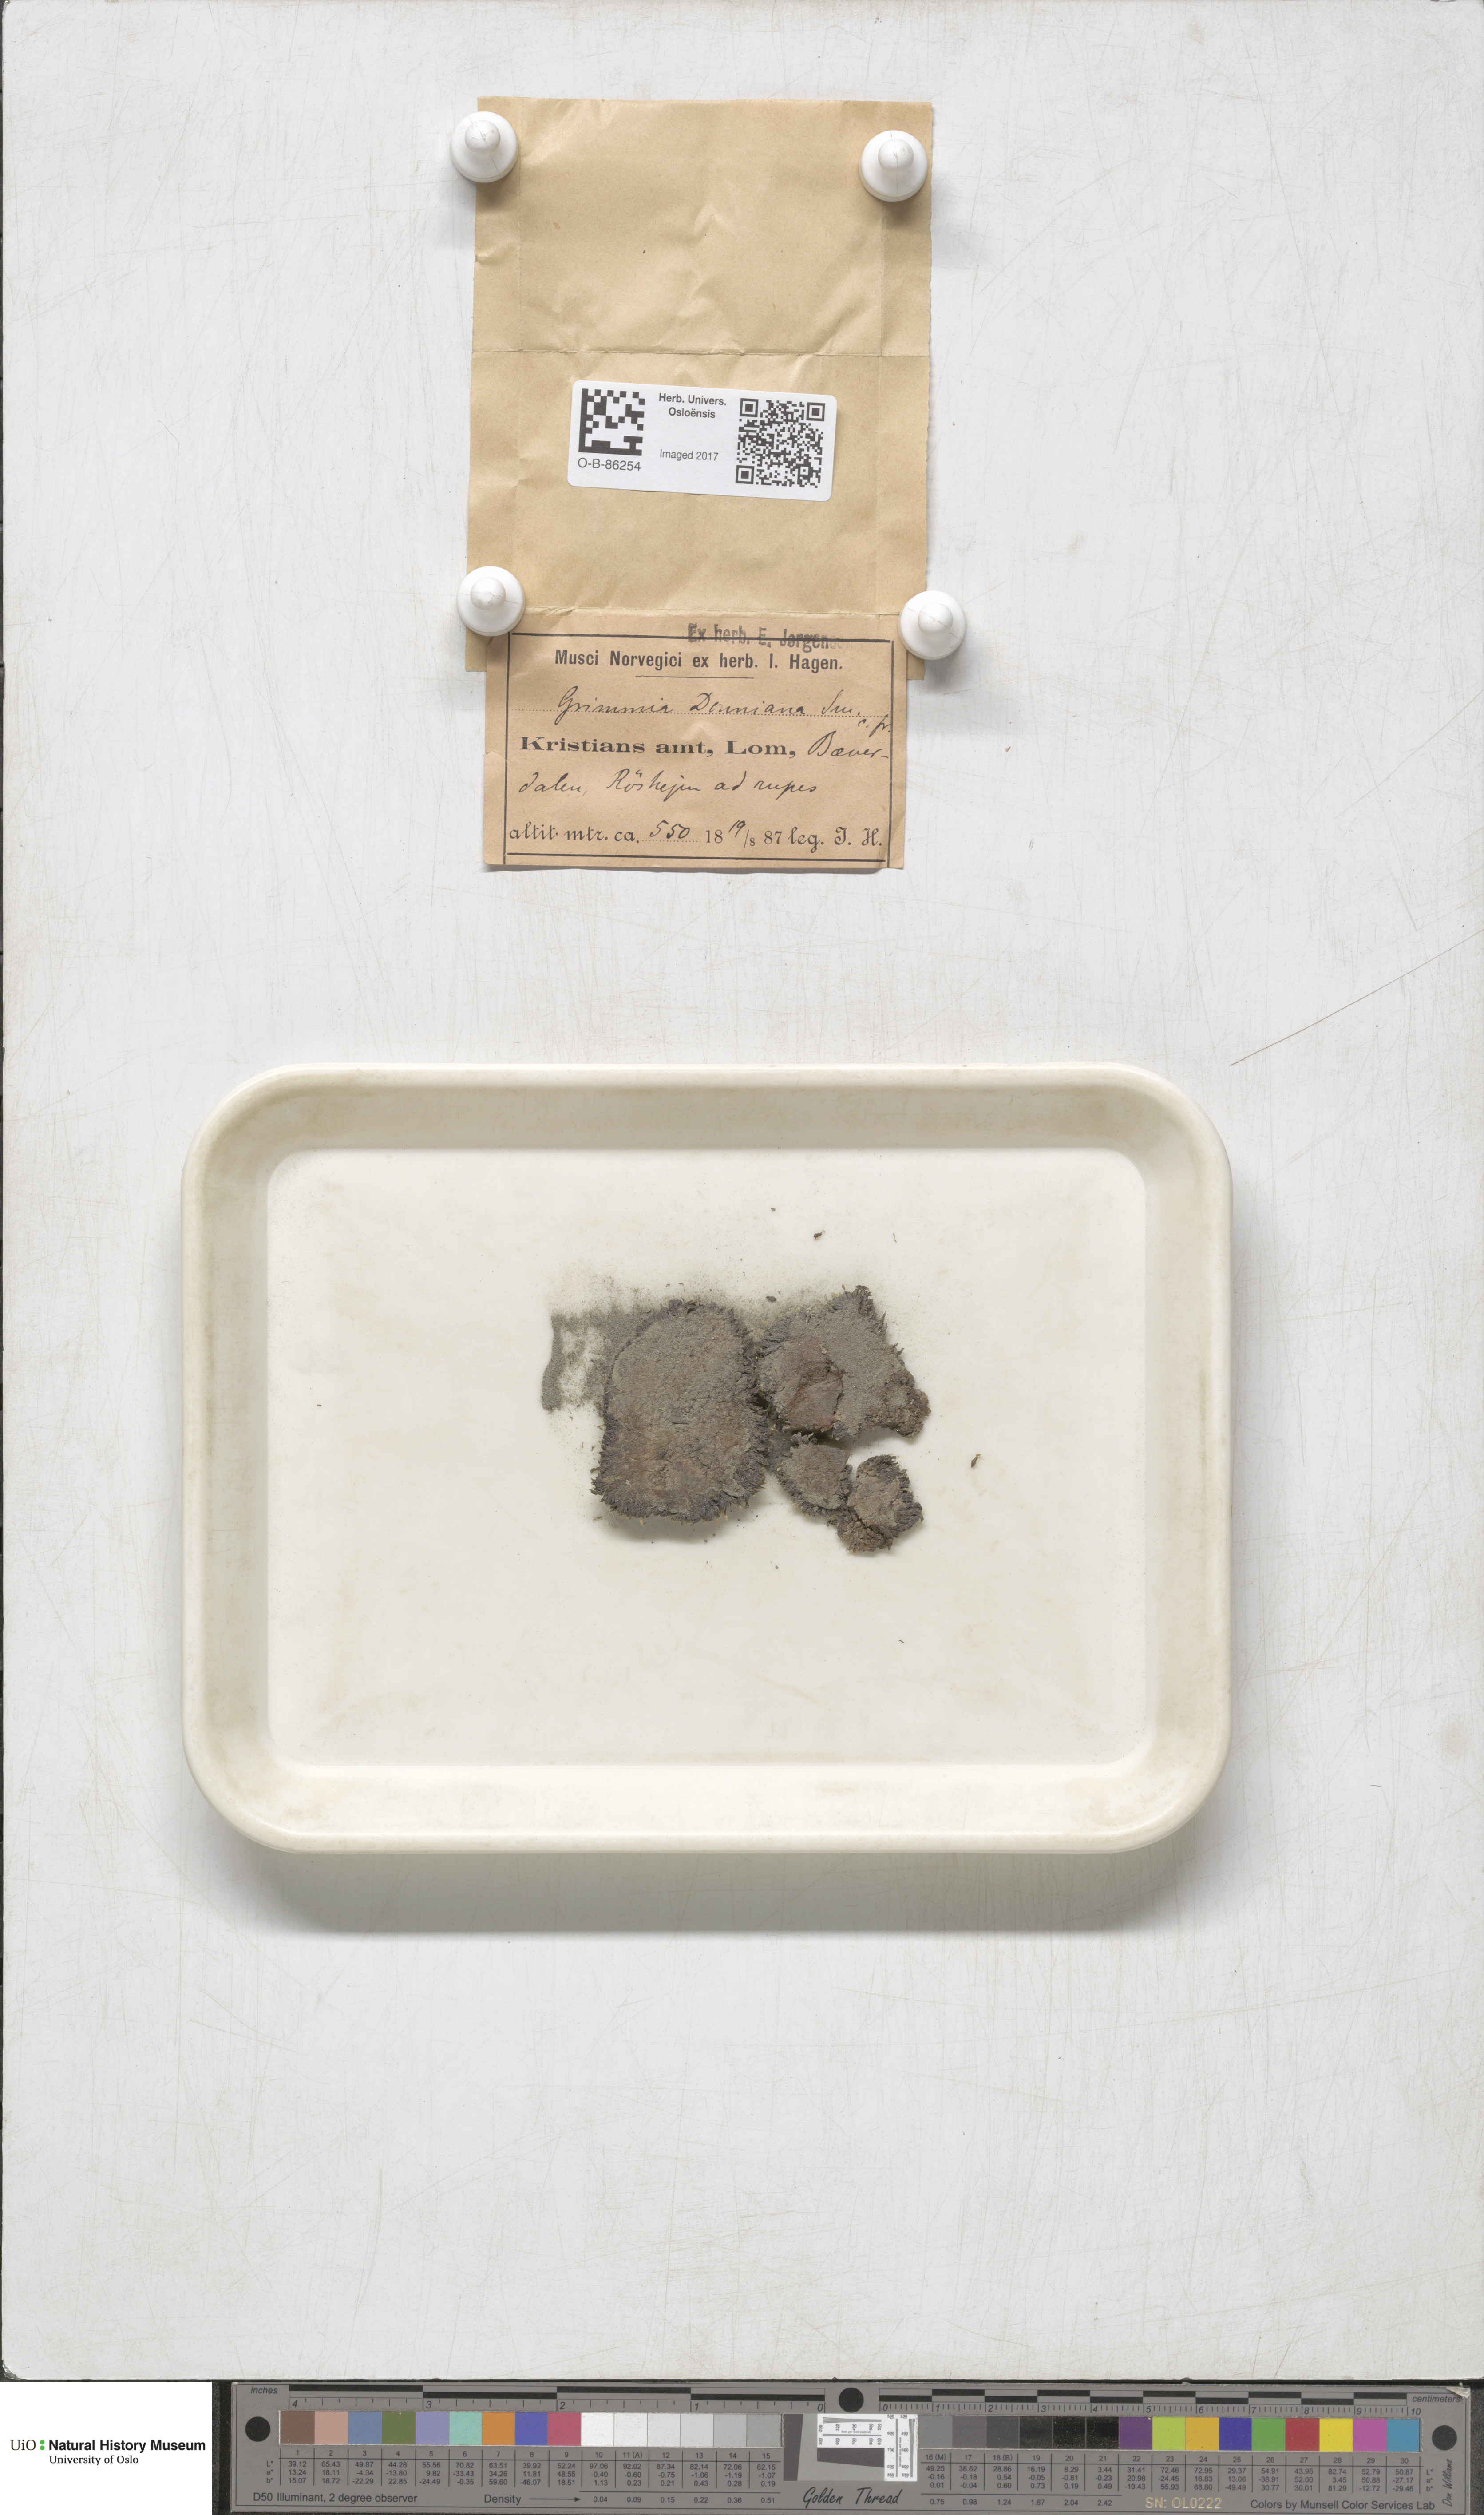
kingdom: Plantae
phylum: Bryophyta
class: Bryopsida
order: Grimmiales
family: Grimmiaceae
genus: Grimmia
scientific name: Grimmia donniana
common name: Donn's grimmia
